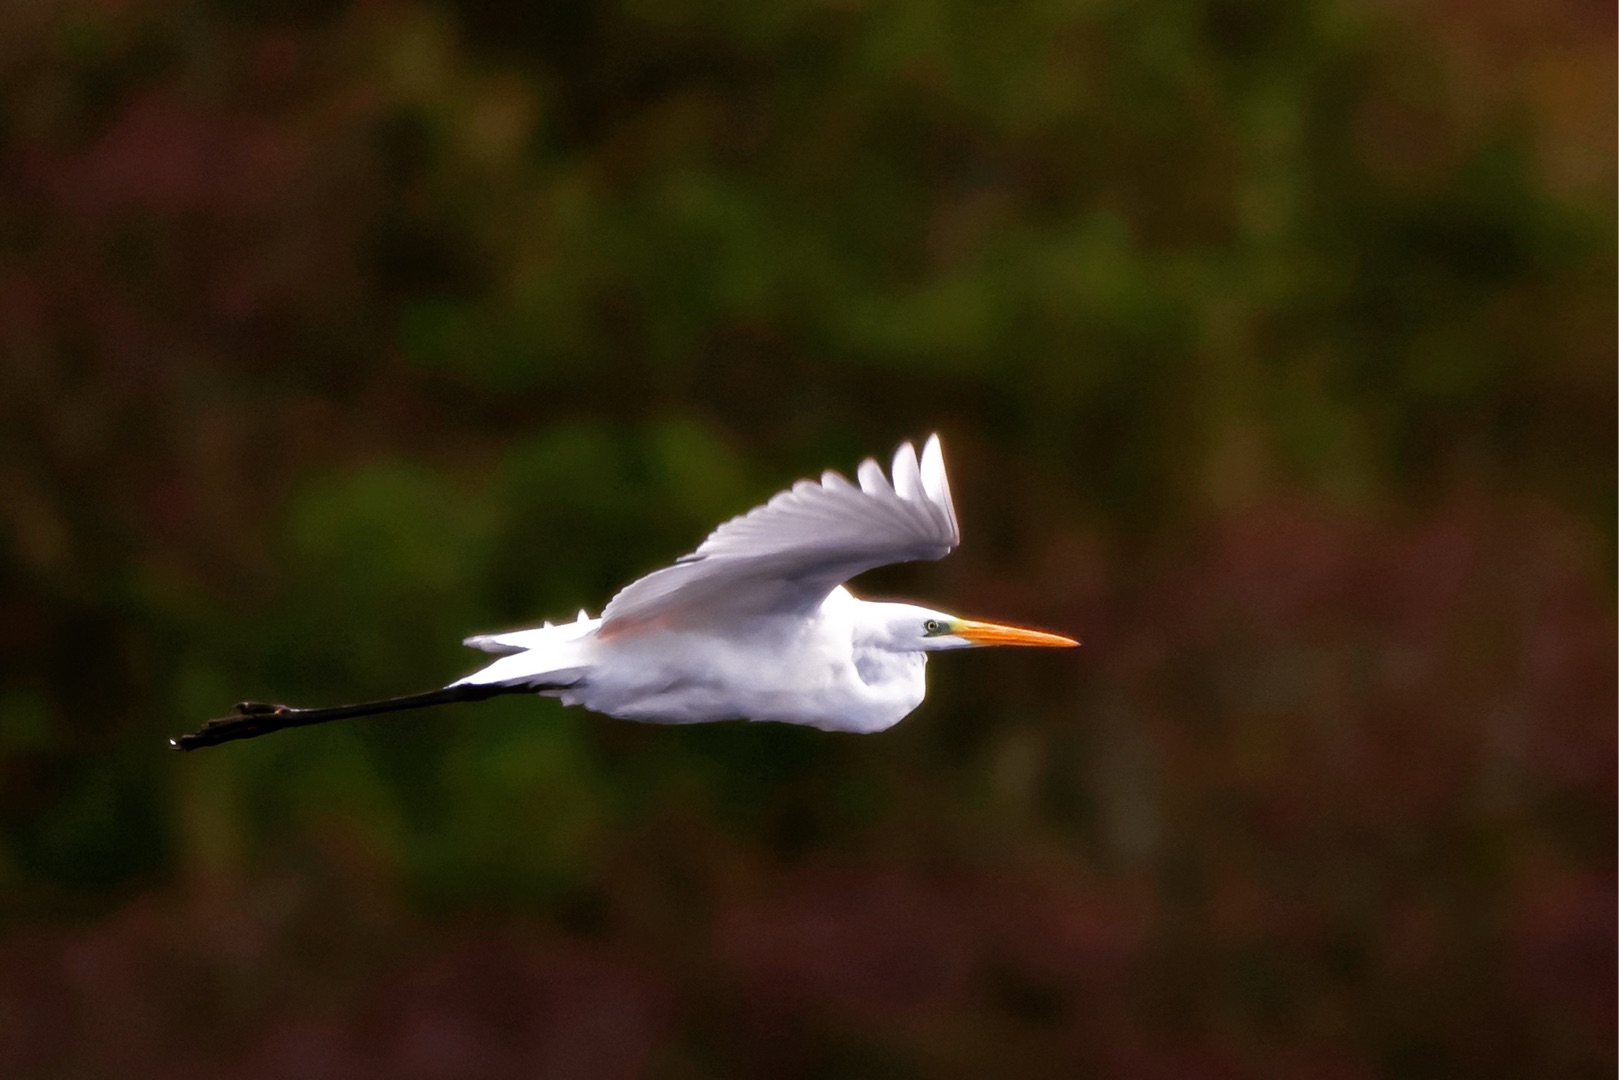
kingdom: Animalia
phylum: Chordata
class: Aves
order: Pelecaniformes
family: Ardeidae
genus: Ardea
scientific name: Ardea alba
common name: Sølvhejre
